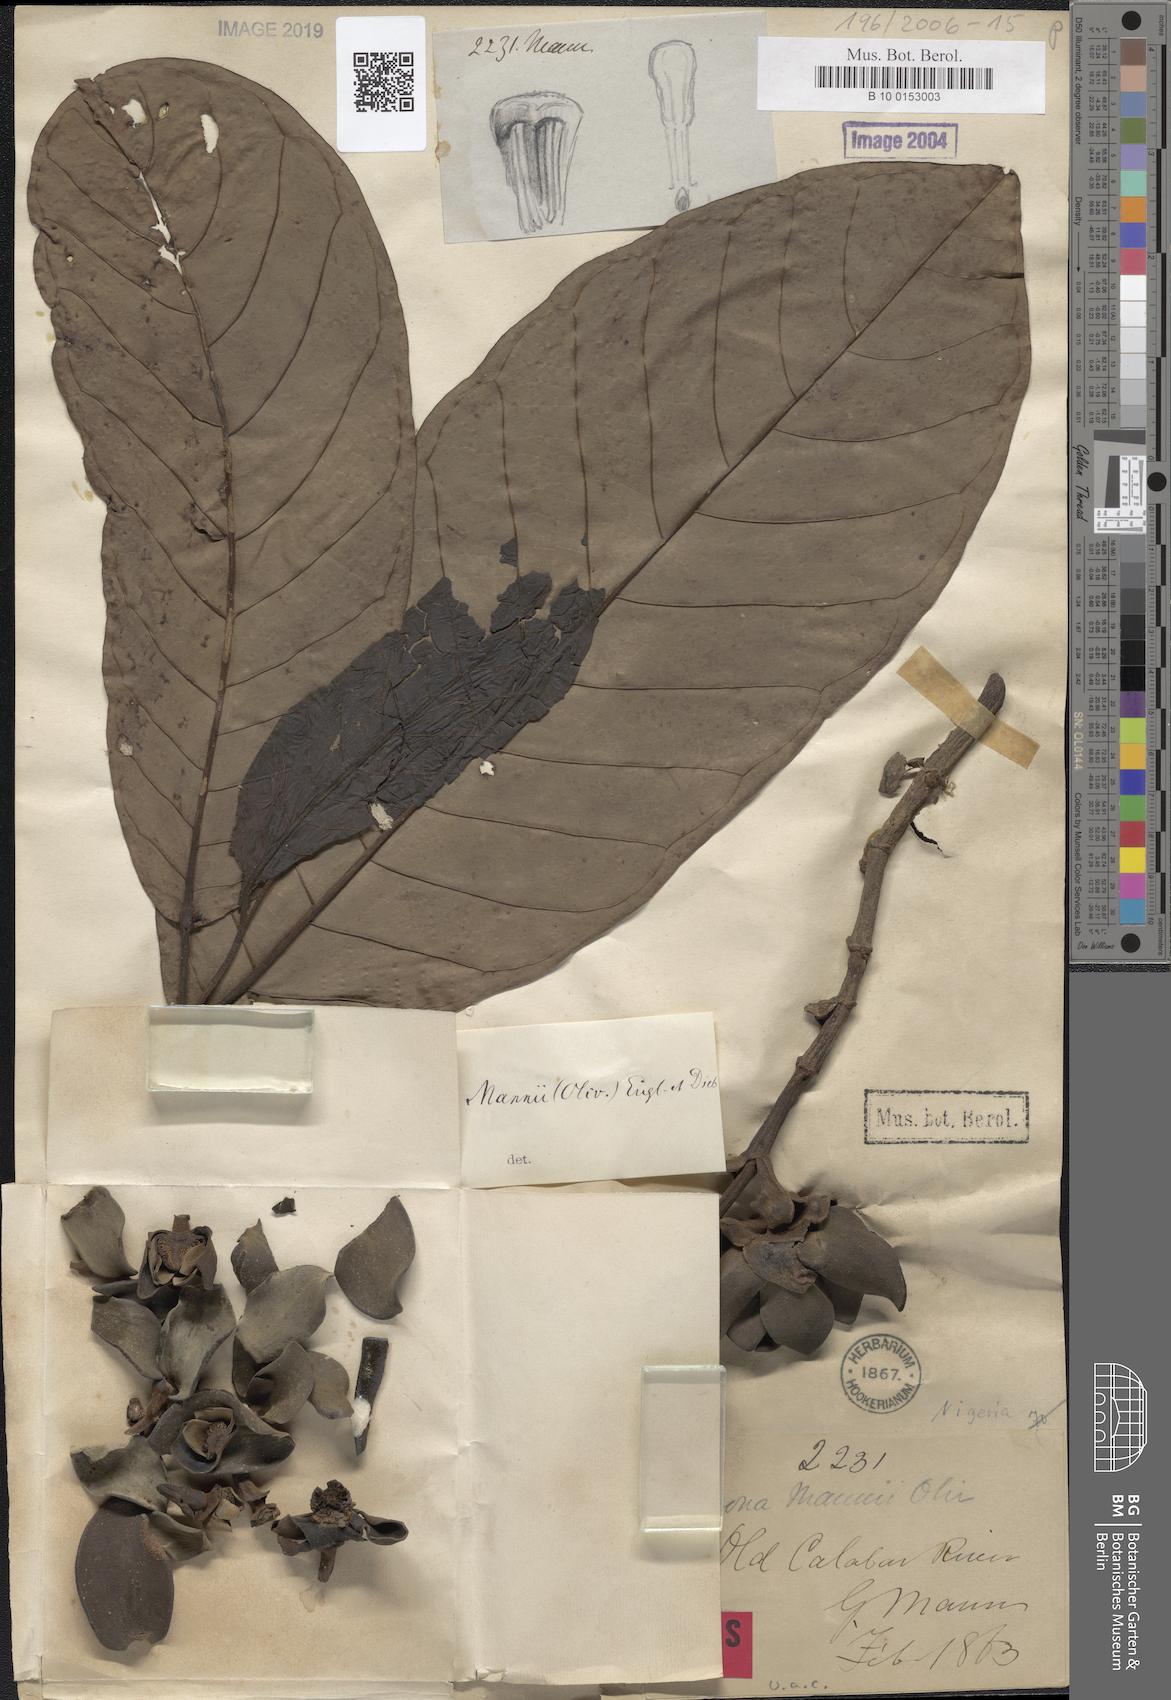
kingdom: Plantae
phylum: Tracheophyta
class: Magnoliopsida
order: Magnoliales
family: Annonaceae
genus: Anonidium
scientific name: Anonidium mannii
